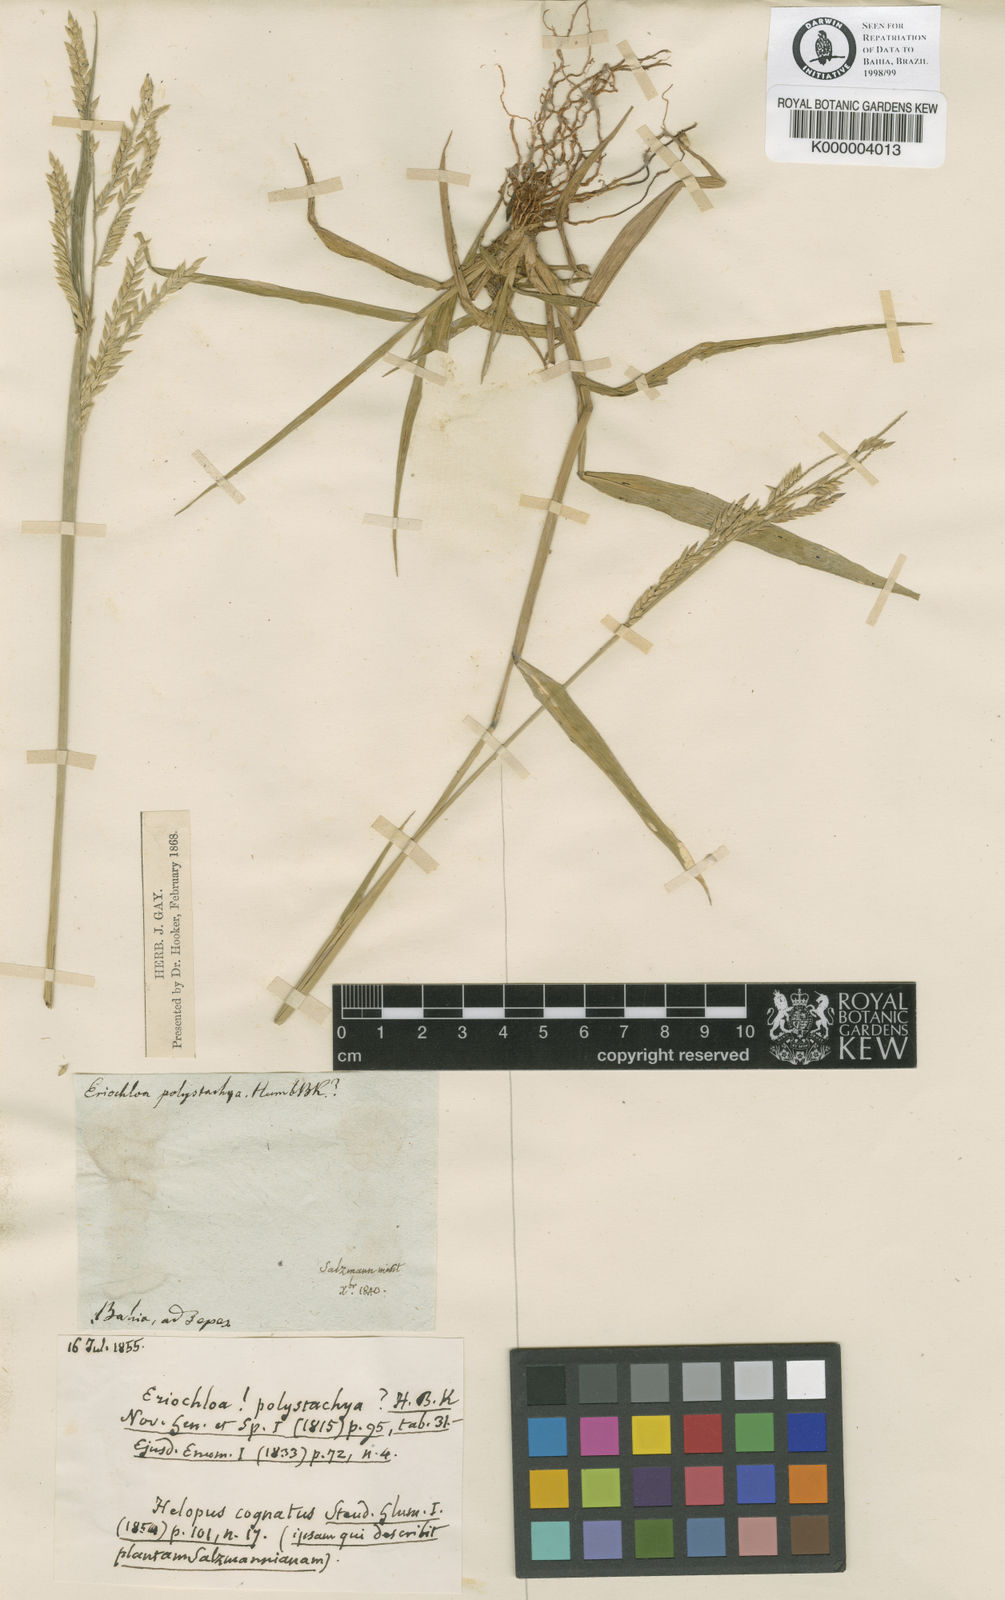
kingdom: Plantae
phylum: Tracheophyta
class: Liliopsida
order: Poales
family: Poaceae
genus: Eriochloa
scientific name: Eriochloa punctata
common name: Louisiana cupgrass
